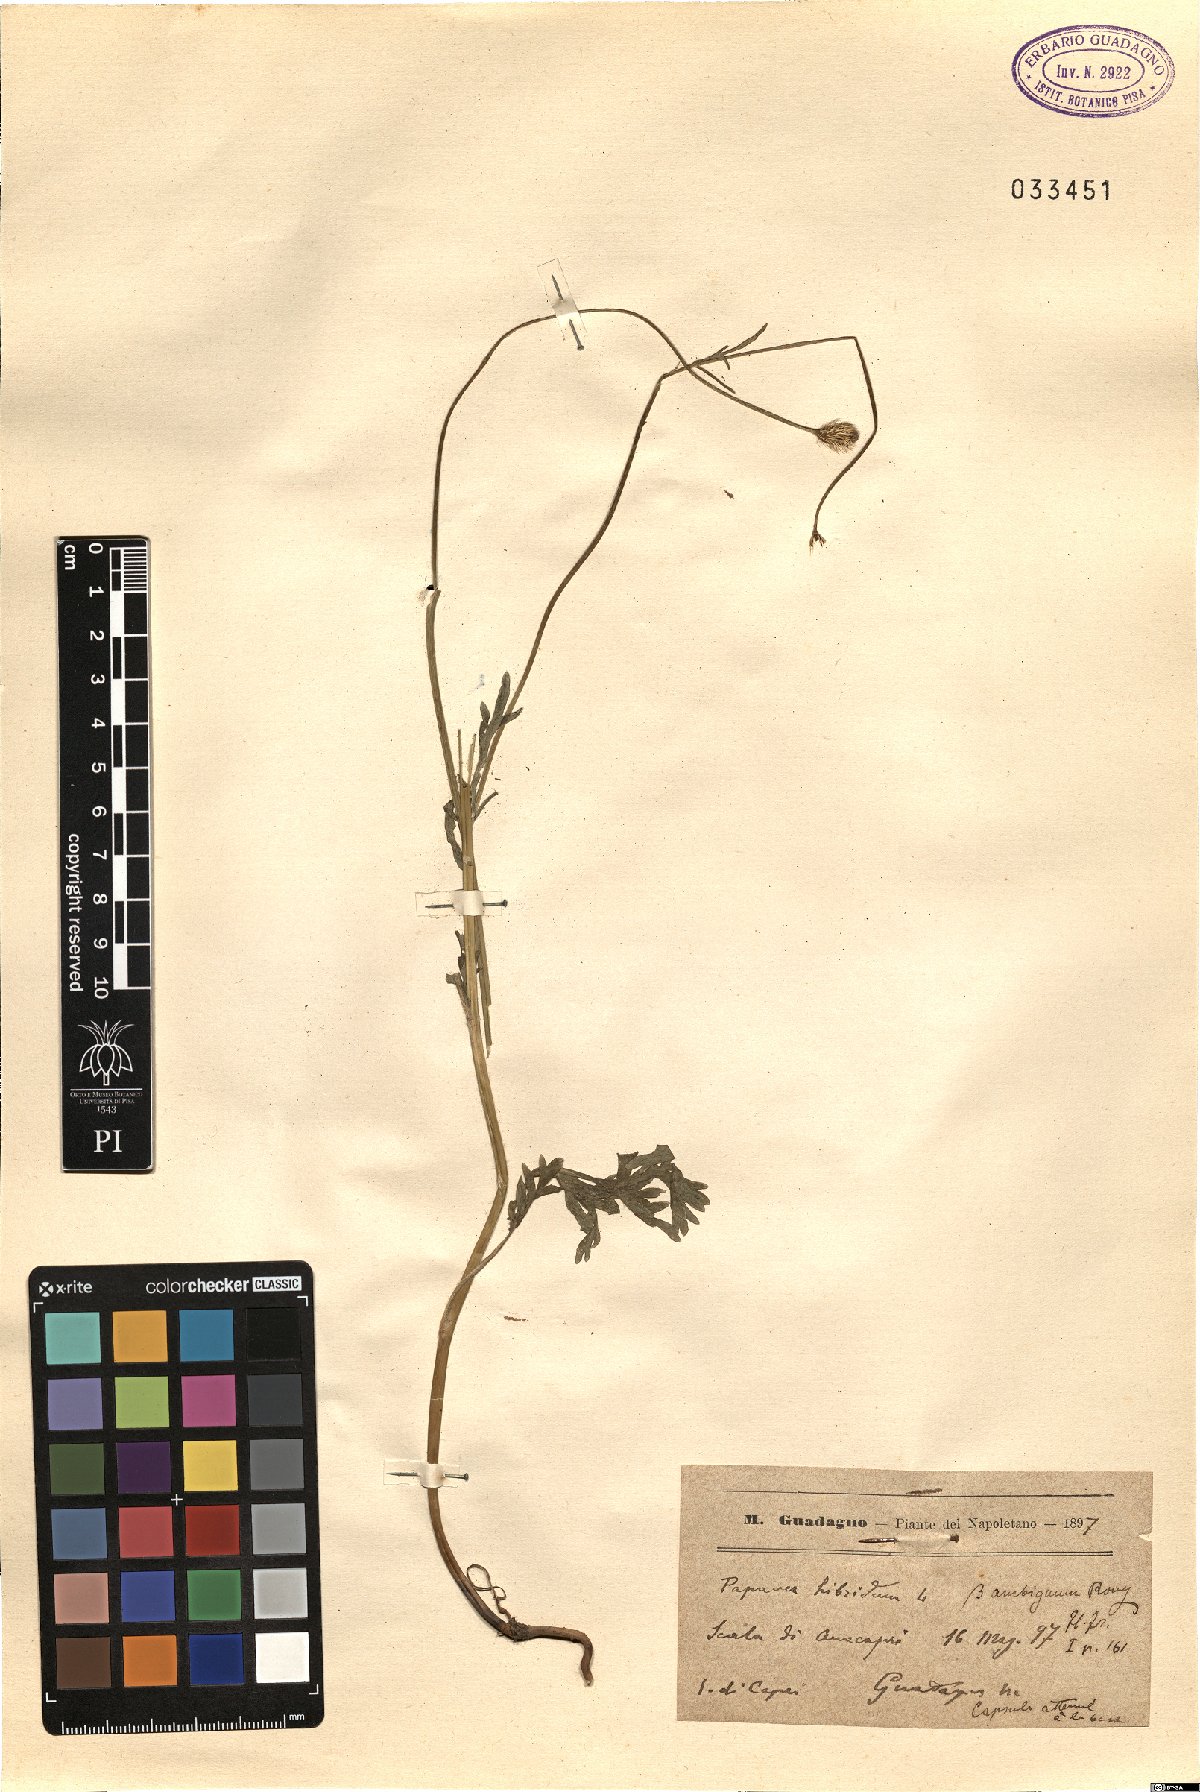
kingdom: Plantae
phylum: Tracheophyta
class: Magnoliopsida
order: Ranunculales
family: Papaveraceae
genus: Roemeria
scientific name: Roemeria hispida
